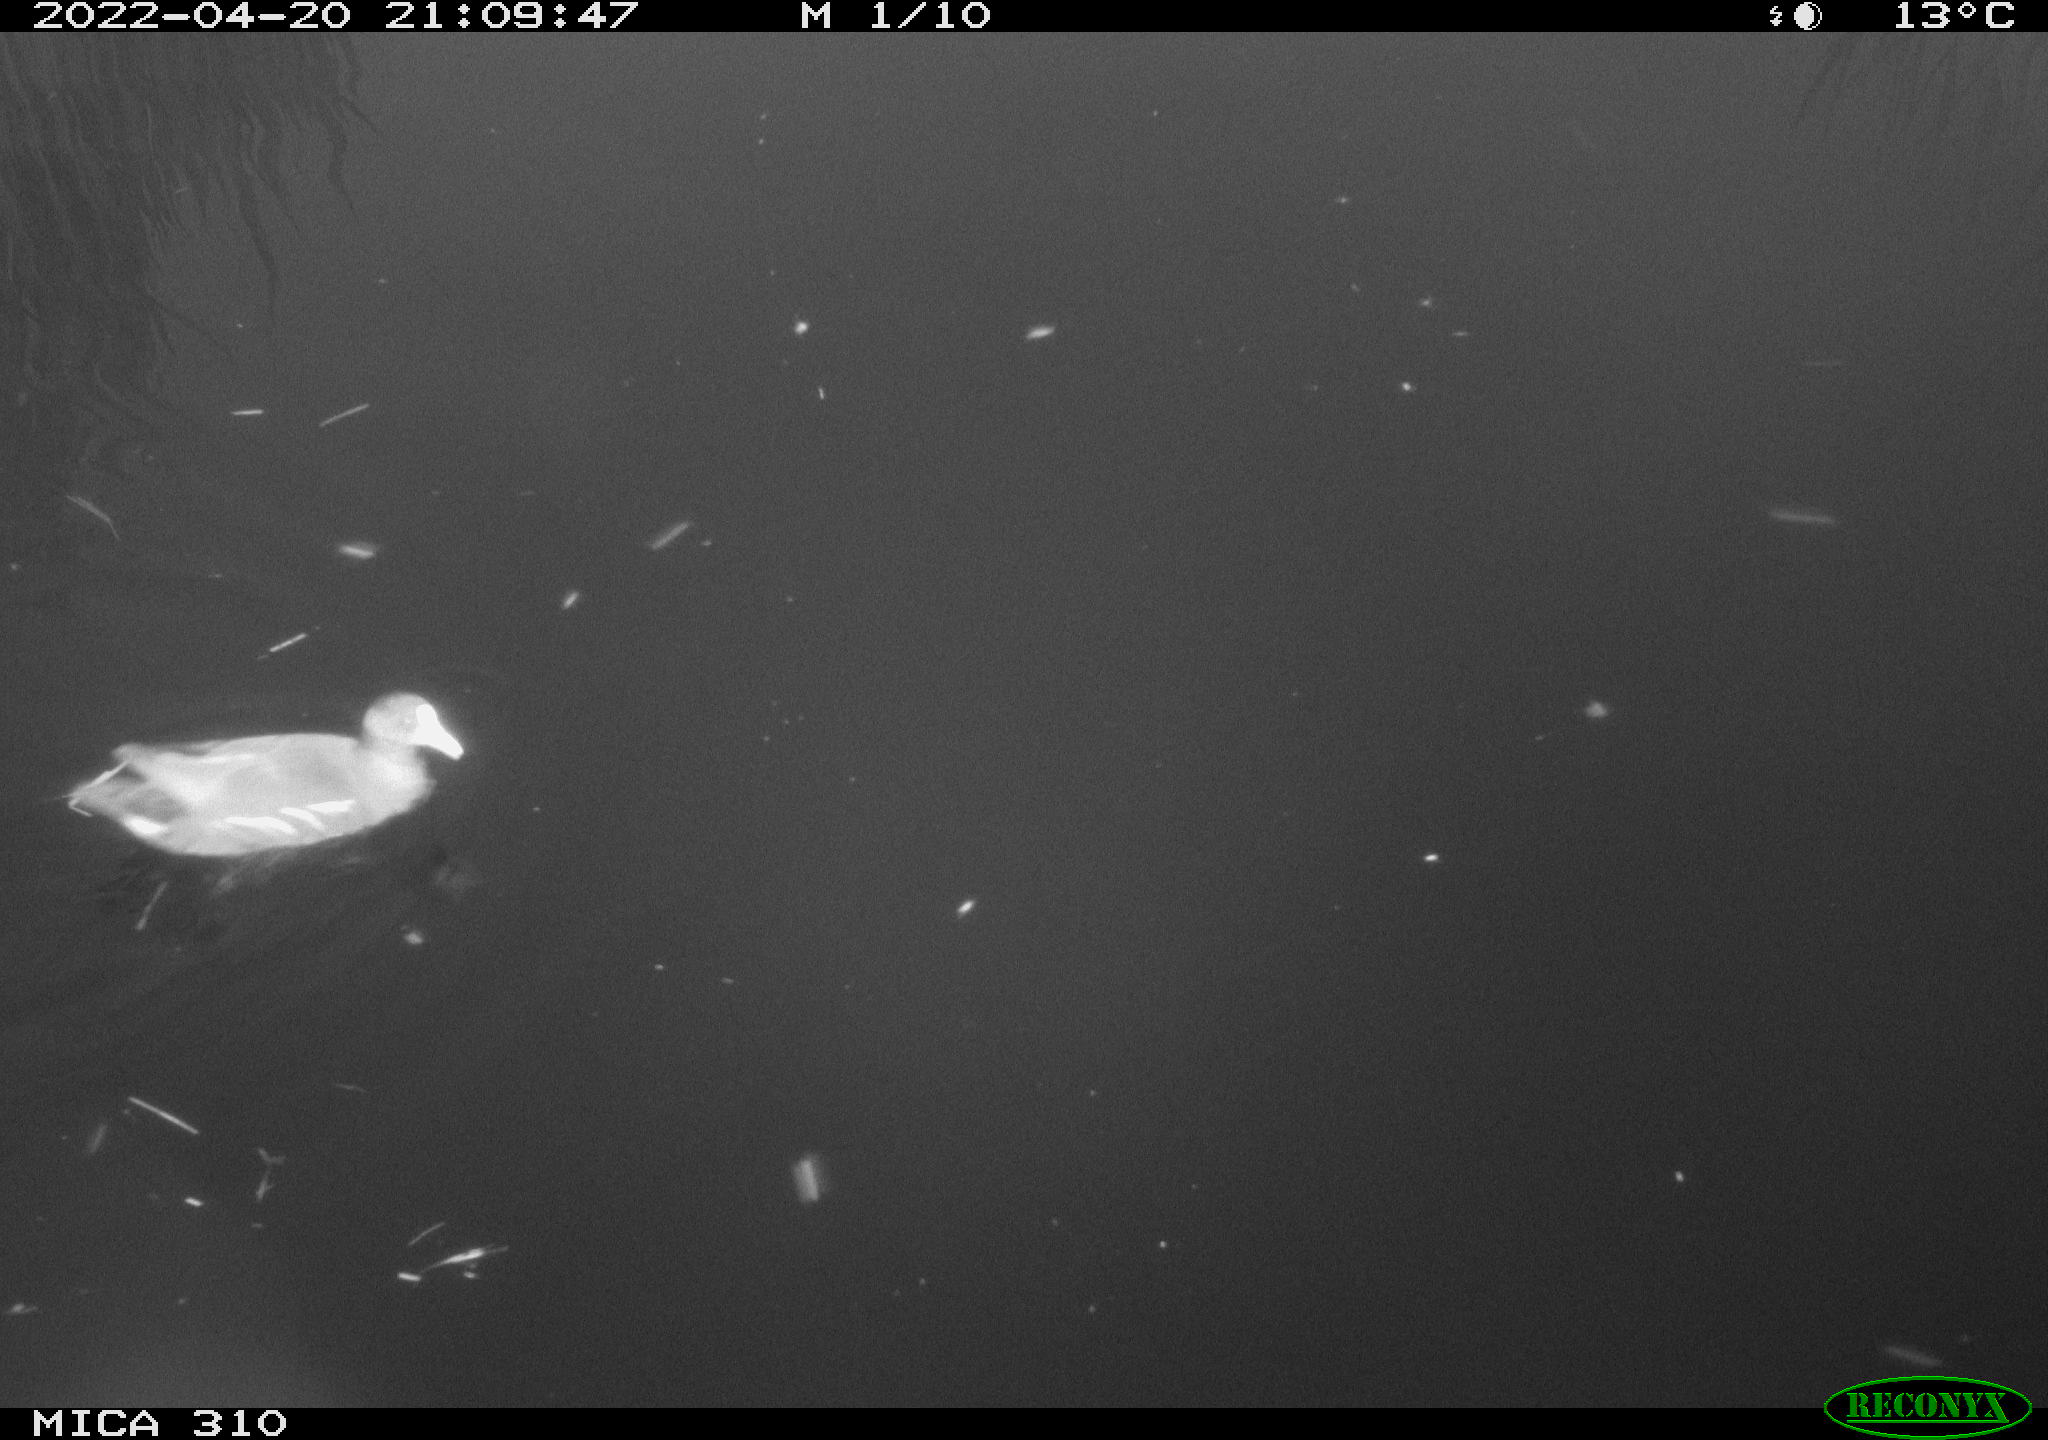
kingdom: Animalia
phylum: Chordata
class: Aves
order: Gruiformes
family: Rallidae
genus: Gallinula
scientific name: Gallinula chloropus
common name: Common moorhen
